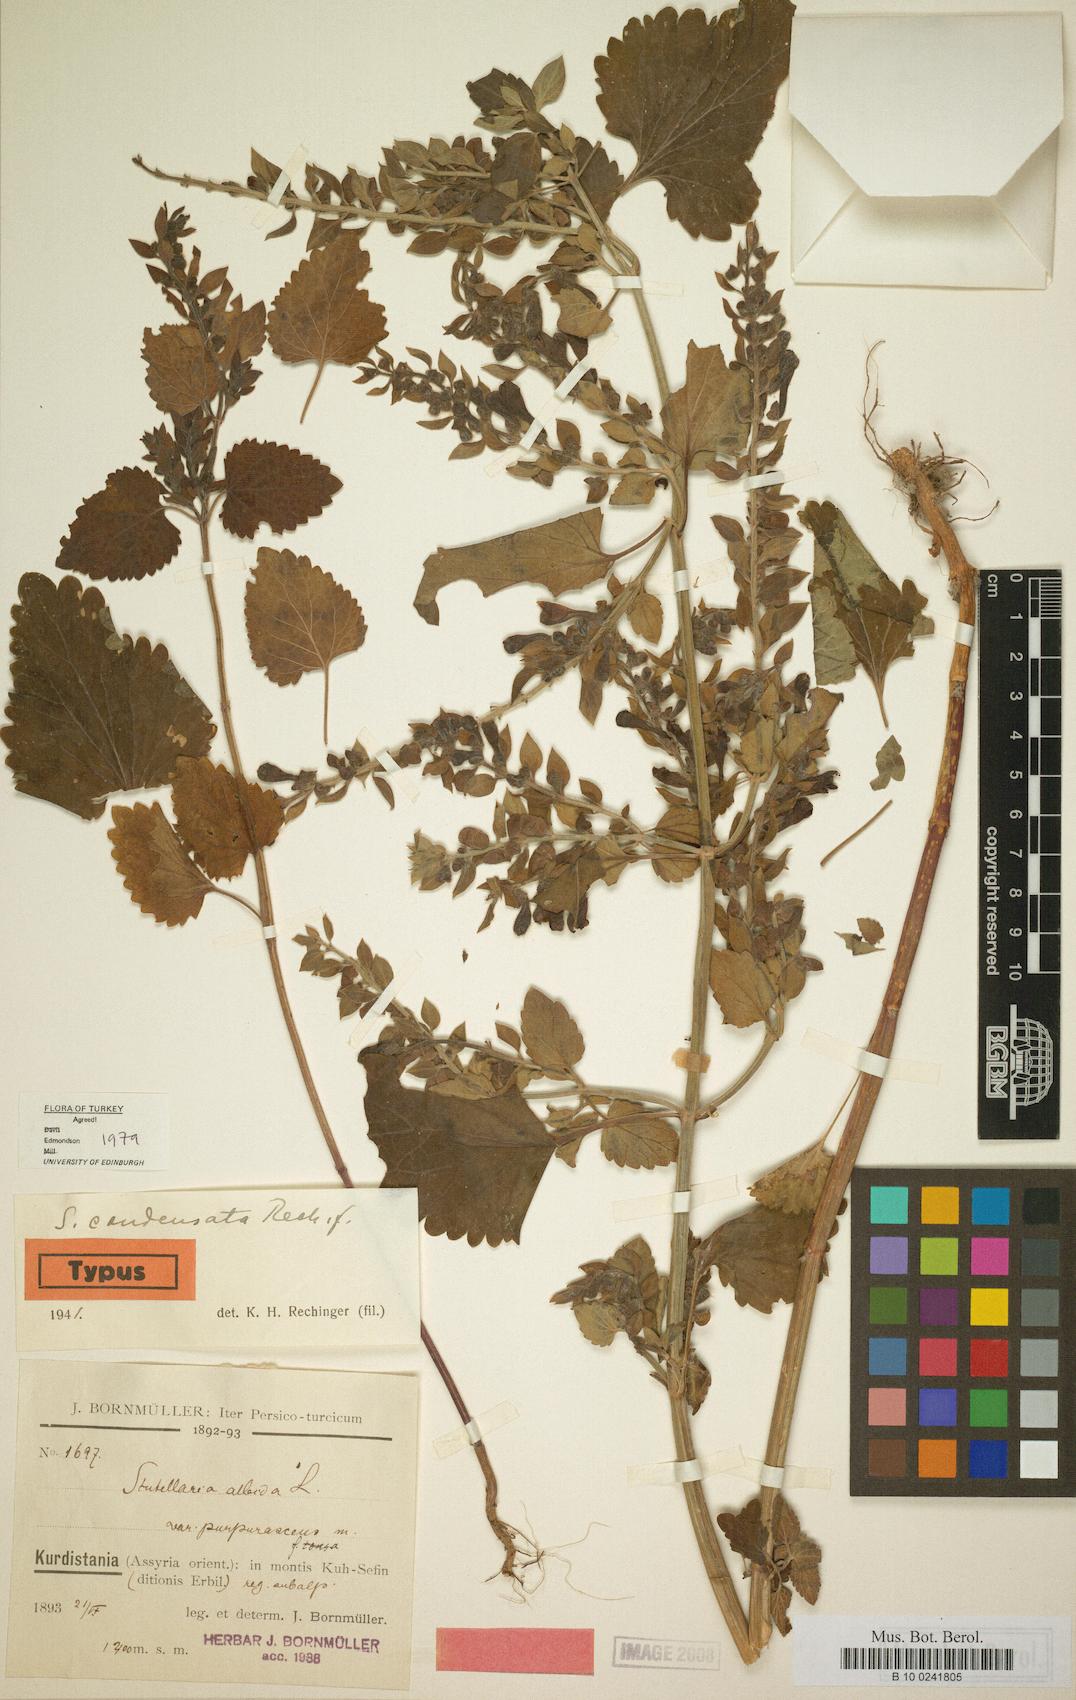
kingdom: Plantae
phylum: Tracheophyta
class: Magnoliopsida
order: Lamiales
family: Lamiaceae
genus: Sideritis
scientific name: Sideritis condensata
